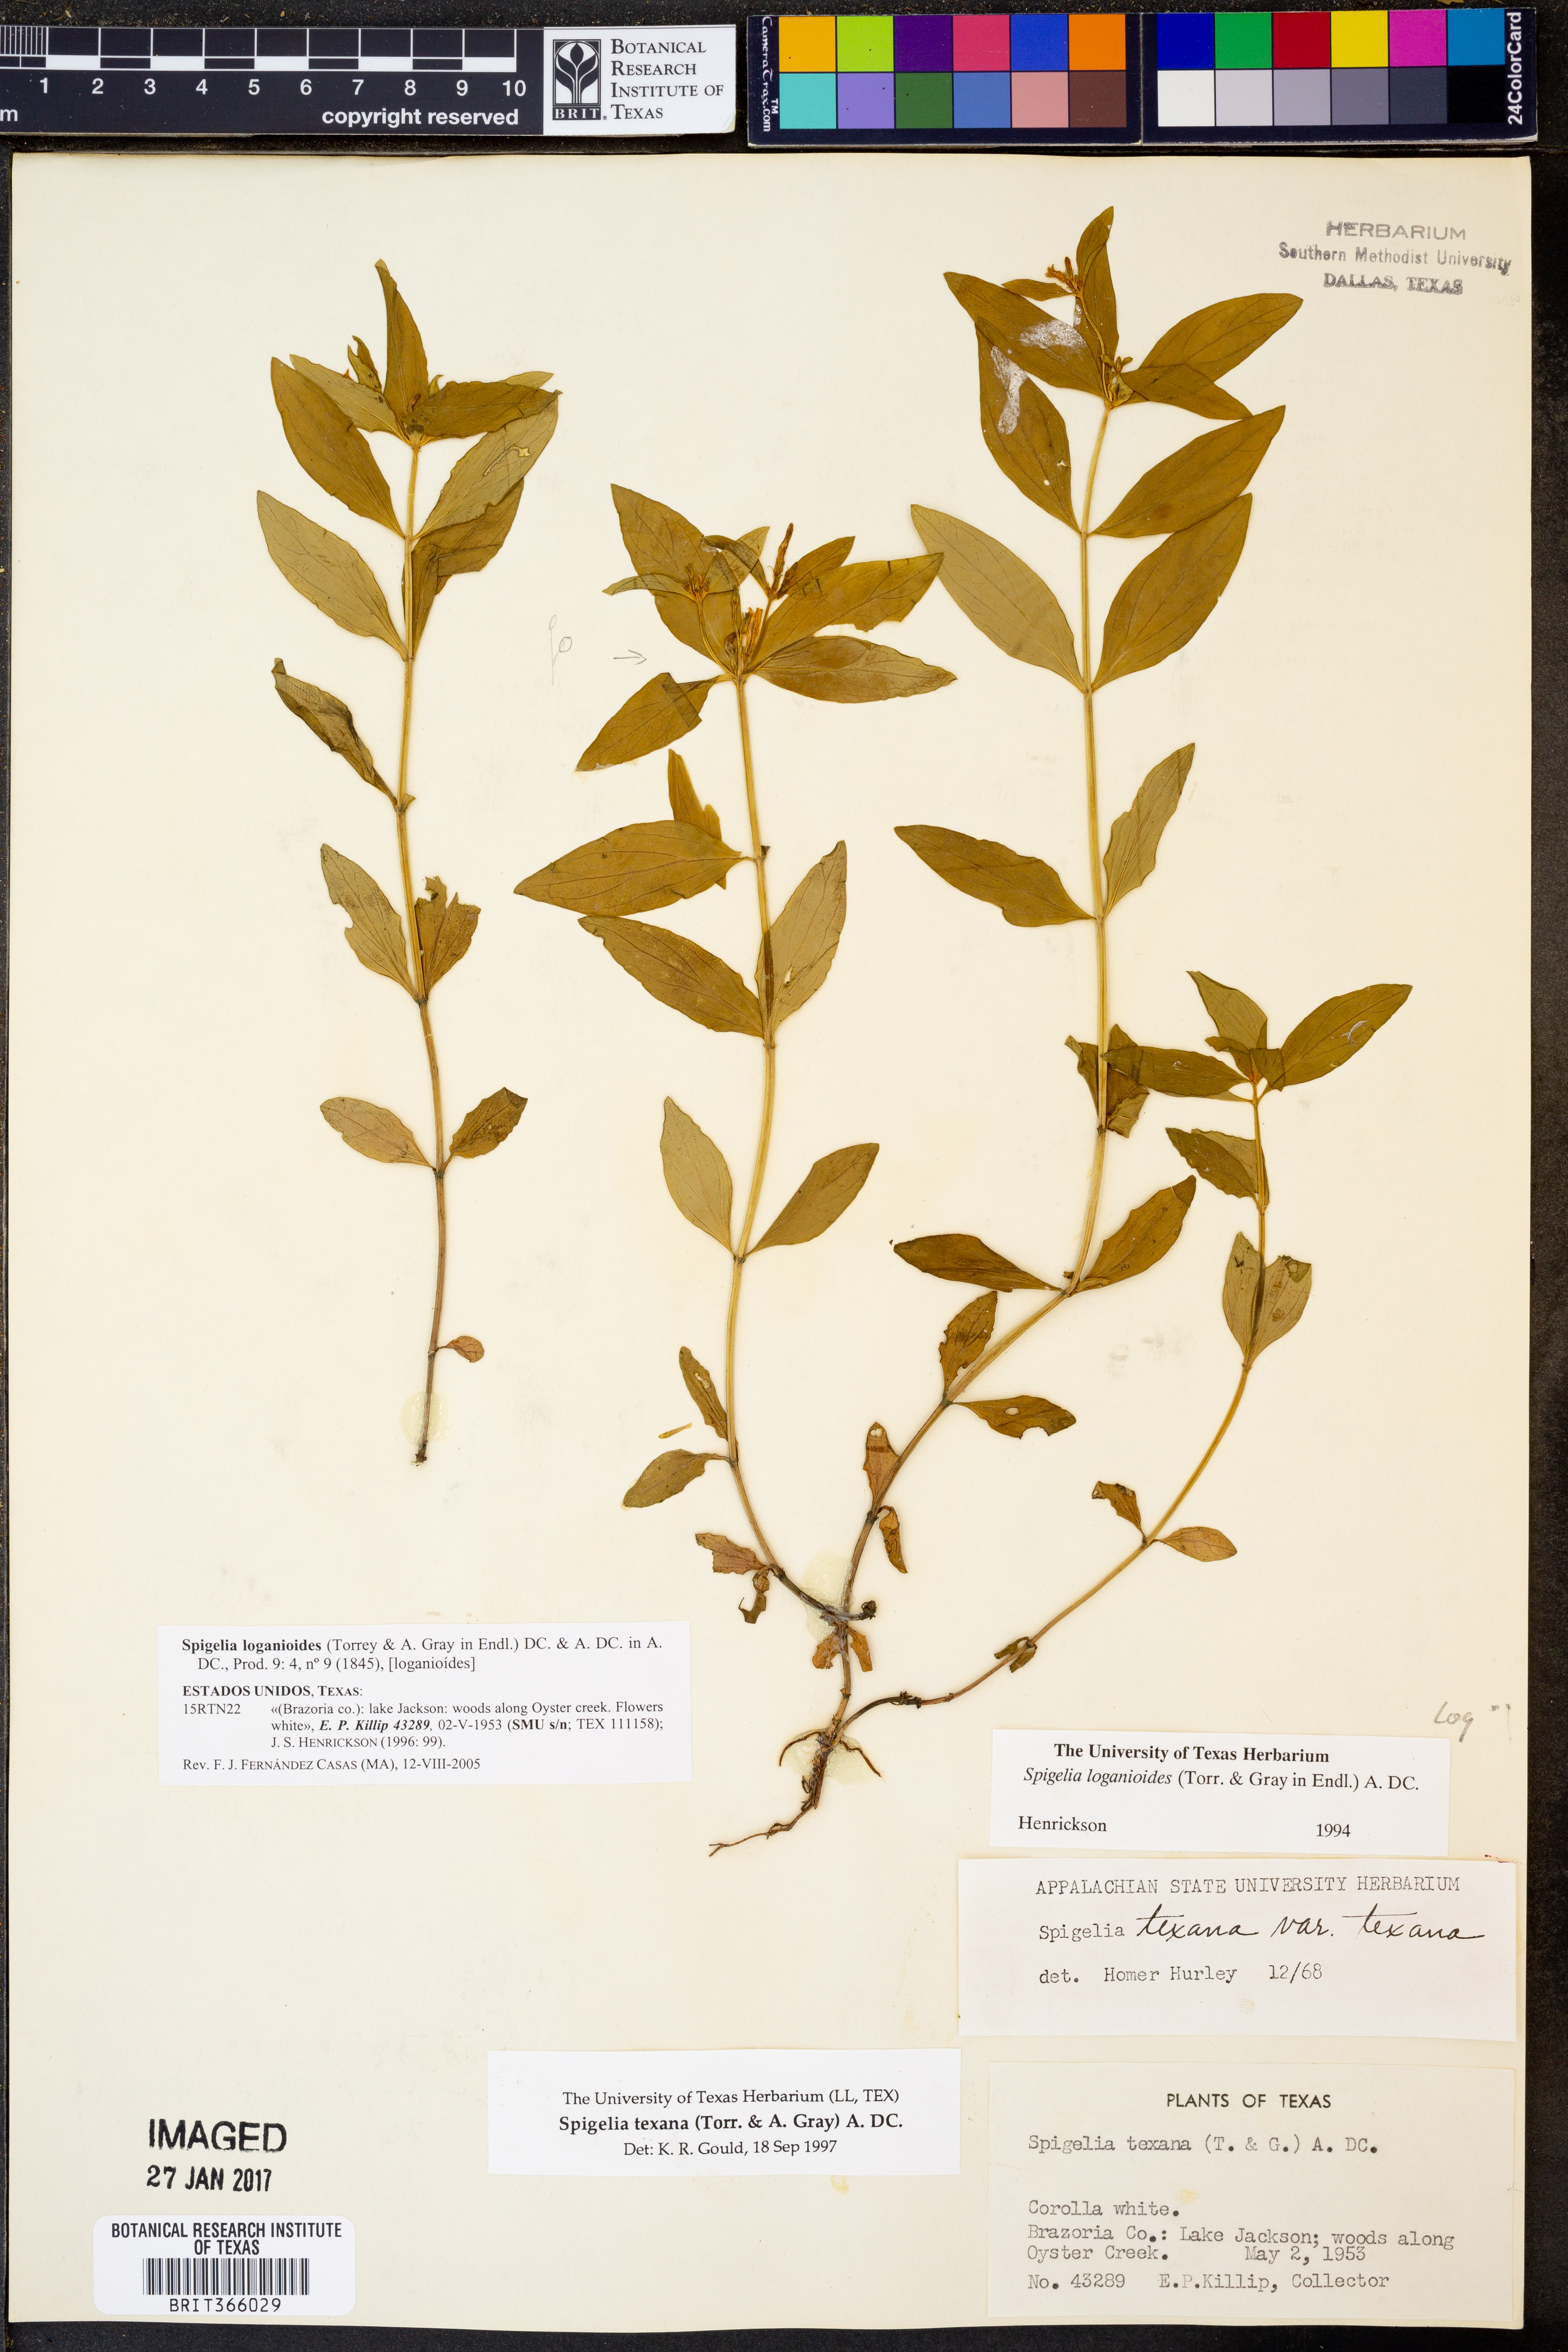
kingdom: Plantae
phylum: Tracheophyta
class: Magnoliopsida
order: Gentianales
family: Loganiaceae
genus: Spigelia
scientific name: Spigelia texana
